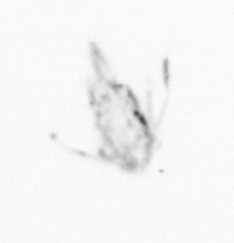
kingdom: Animalia
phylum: Arthropoda
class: Copepoda
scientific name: Copepoda
